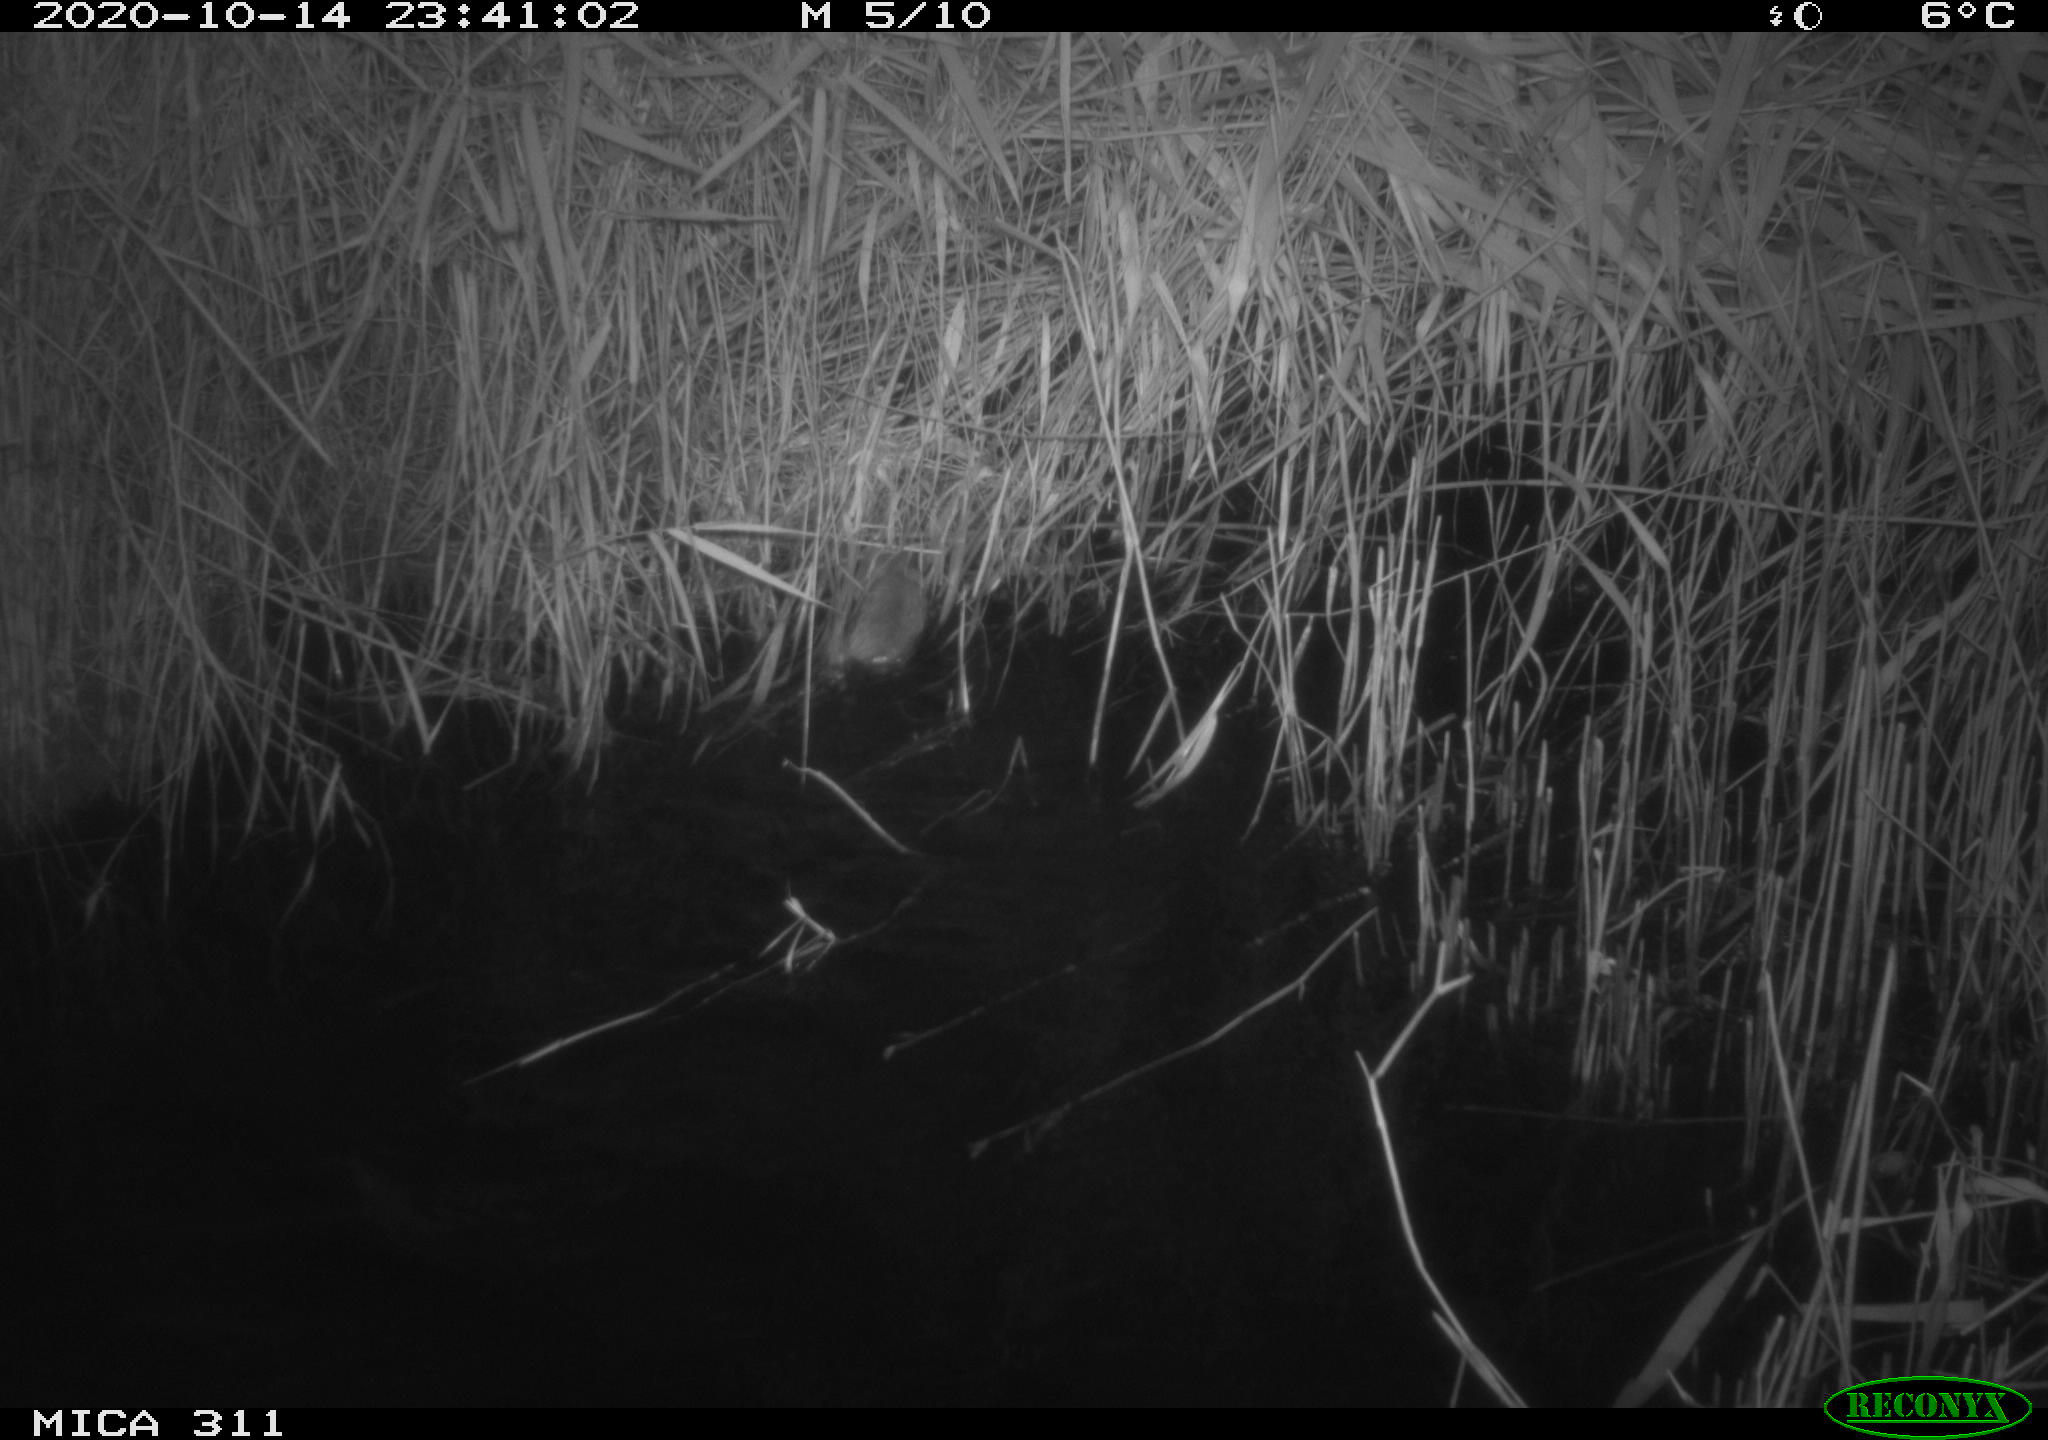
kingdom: Animalia
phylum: Chordata
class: Mammalia
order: Rodentia
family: Muridae
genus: Rattus
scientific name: Rattus norvegicus
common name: Brown rat
